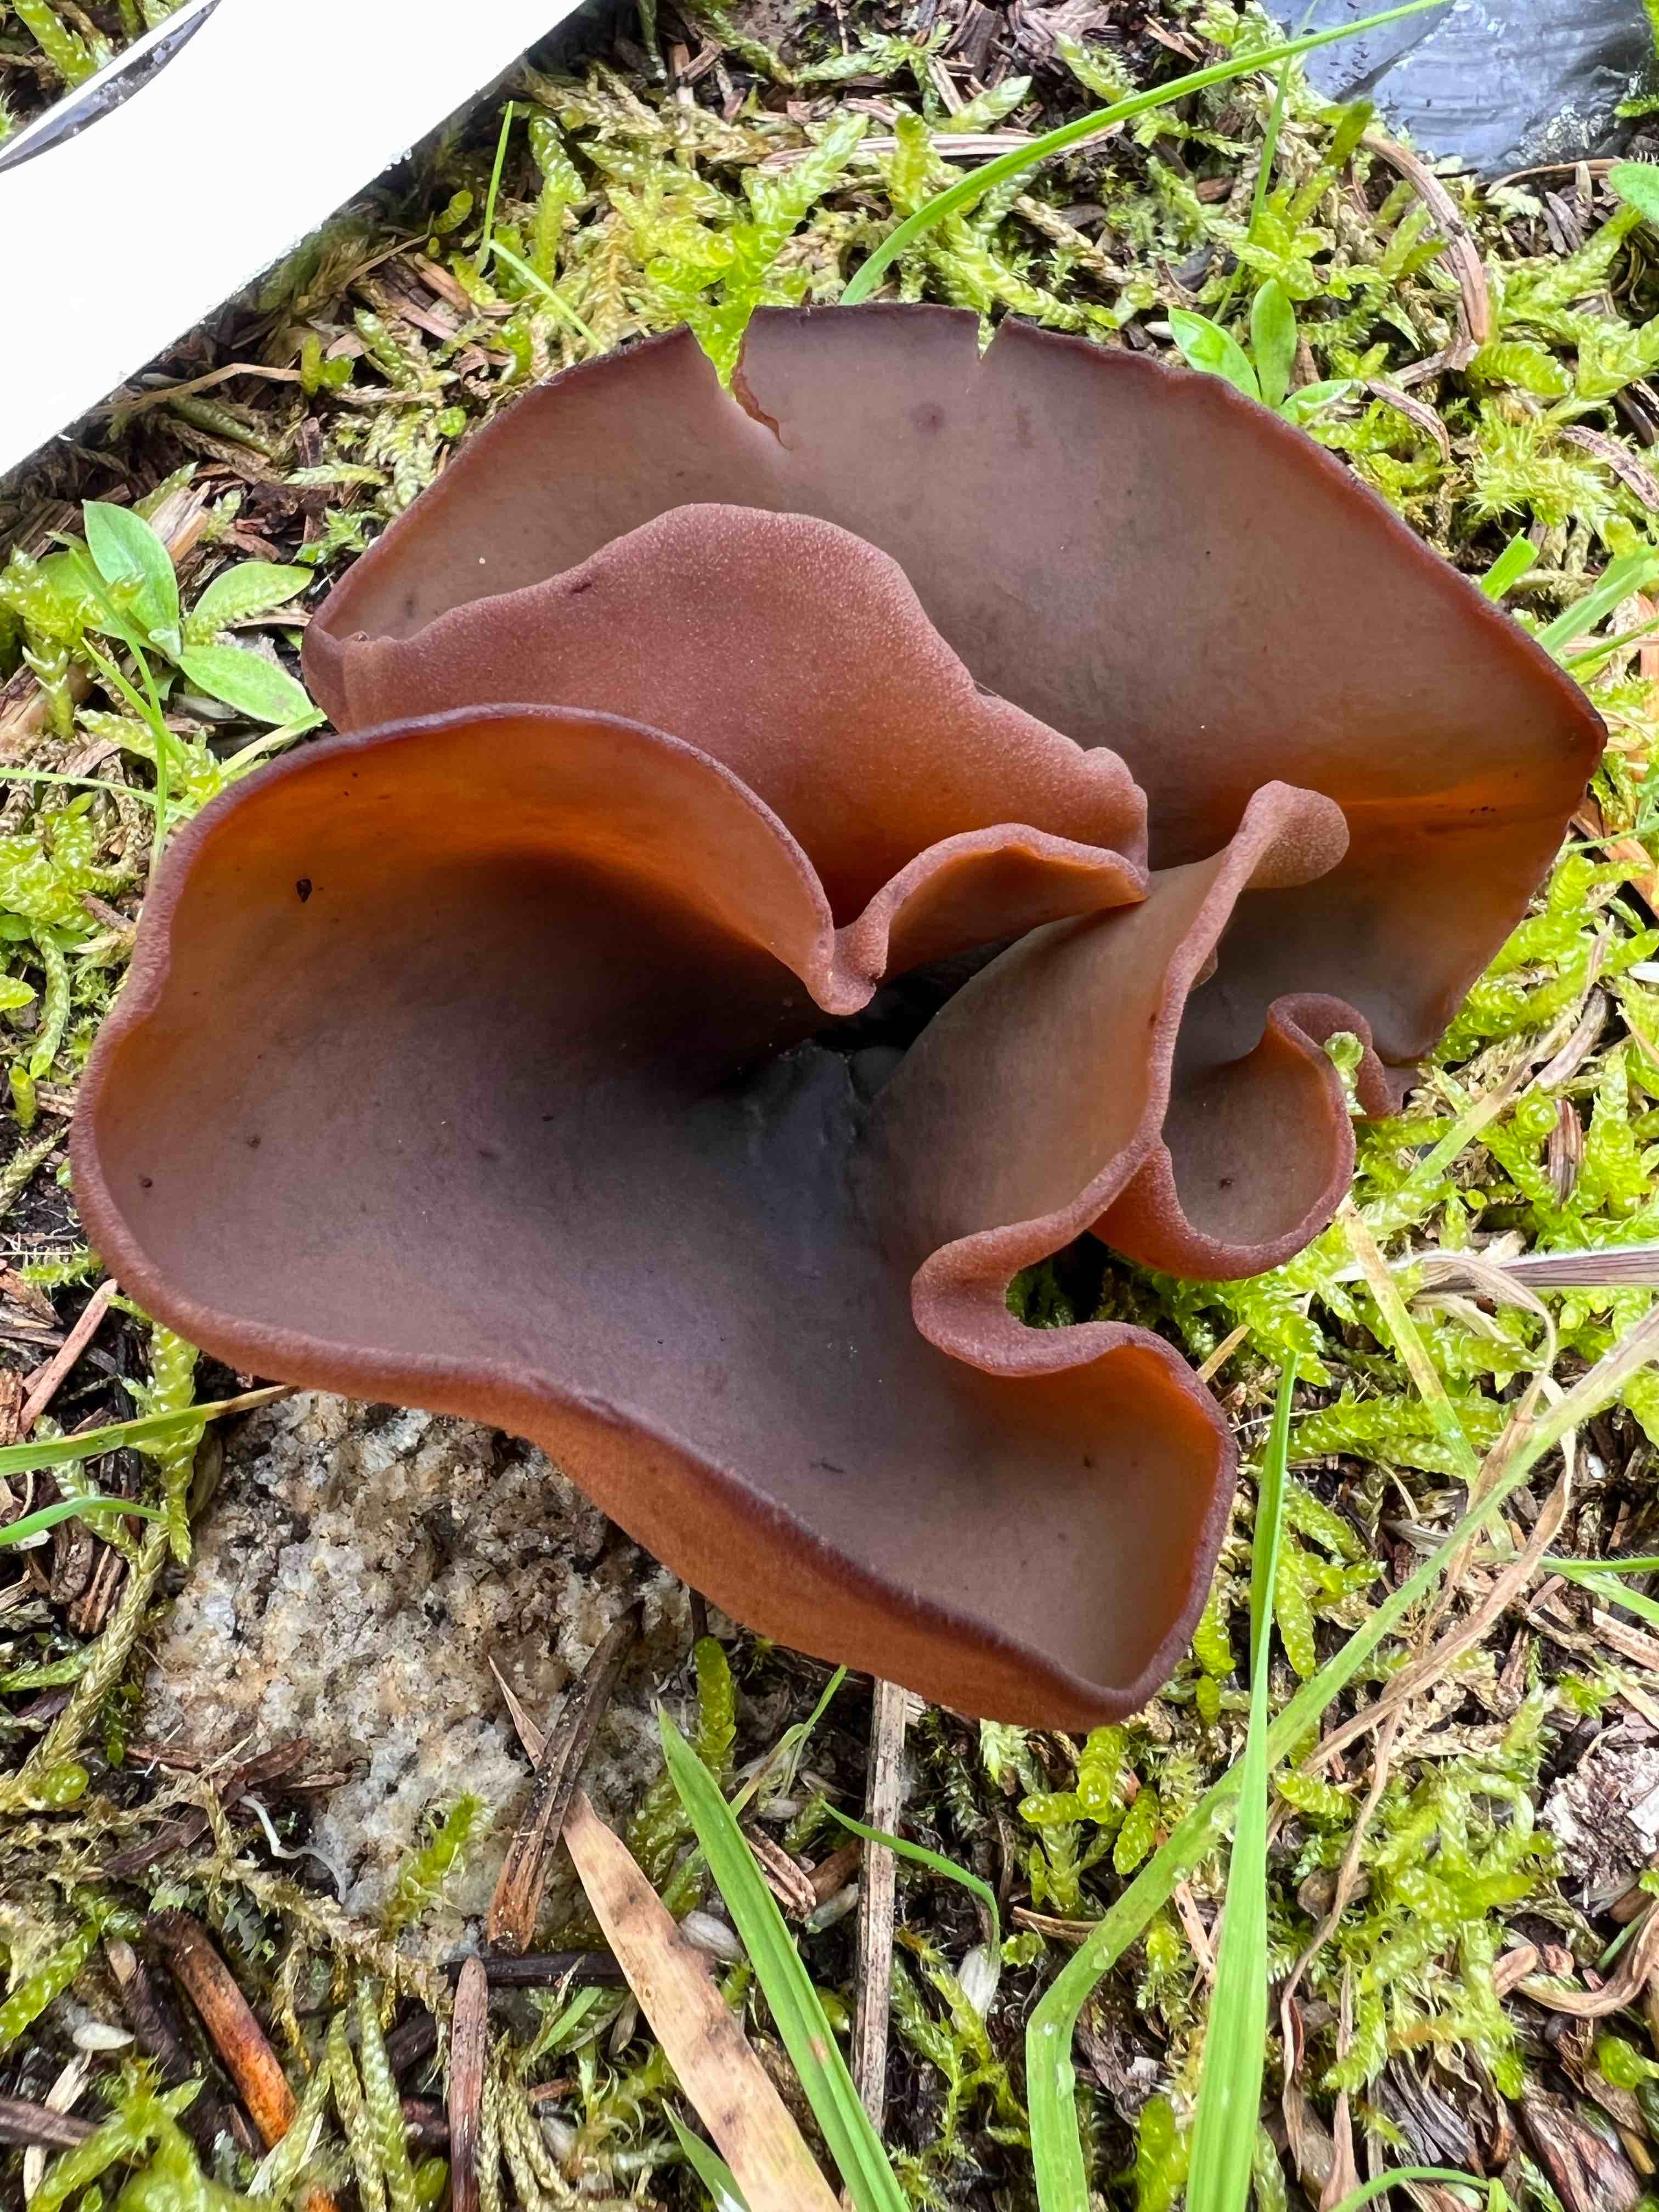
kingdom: Fungi
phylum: Ascomycota
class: Pezizomycetes
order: Pezizales
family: Pezizaceae
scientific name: Pezizaceae
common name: bægersvampfamilien
